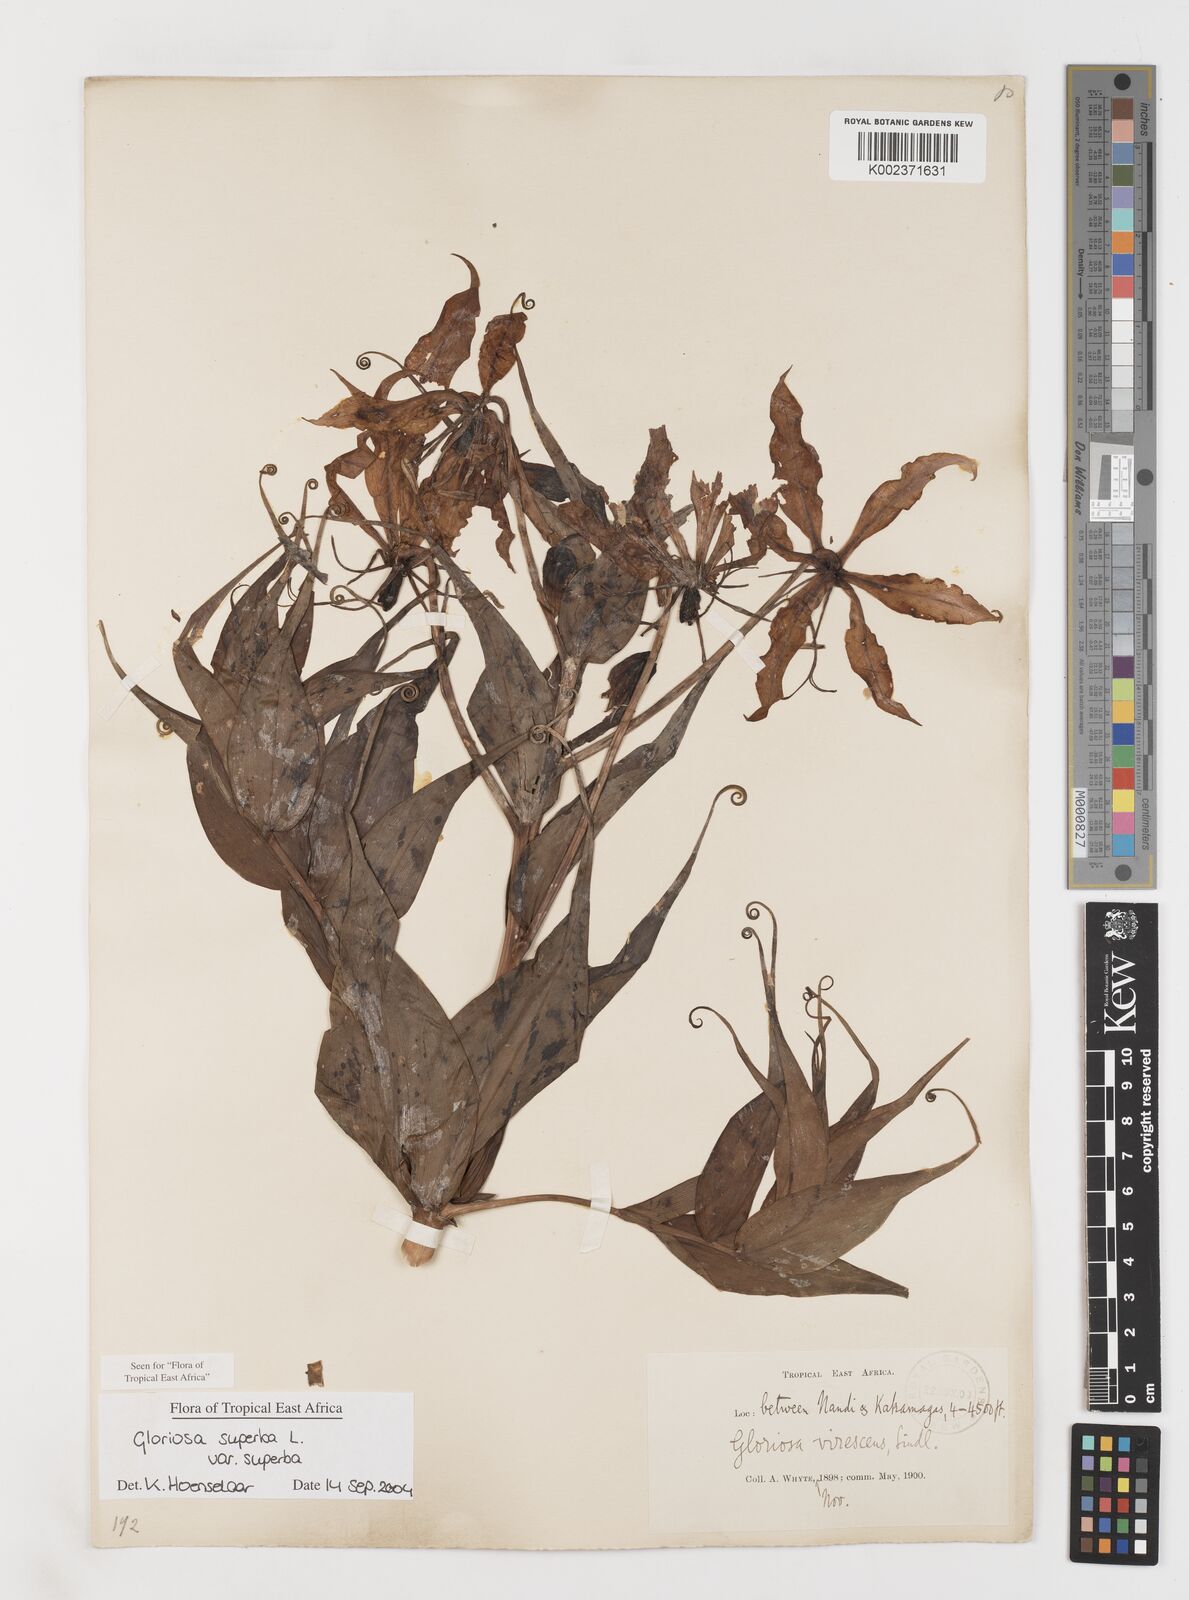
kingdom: Plantae
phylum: Tracheophyta
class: Liliopsida
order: Liliales
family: Colchicaceae
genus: Gloriosa
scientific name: Gloriosa simplex
